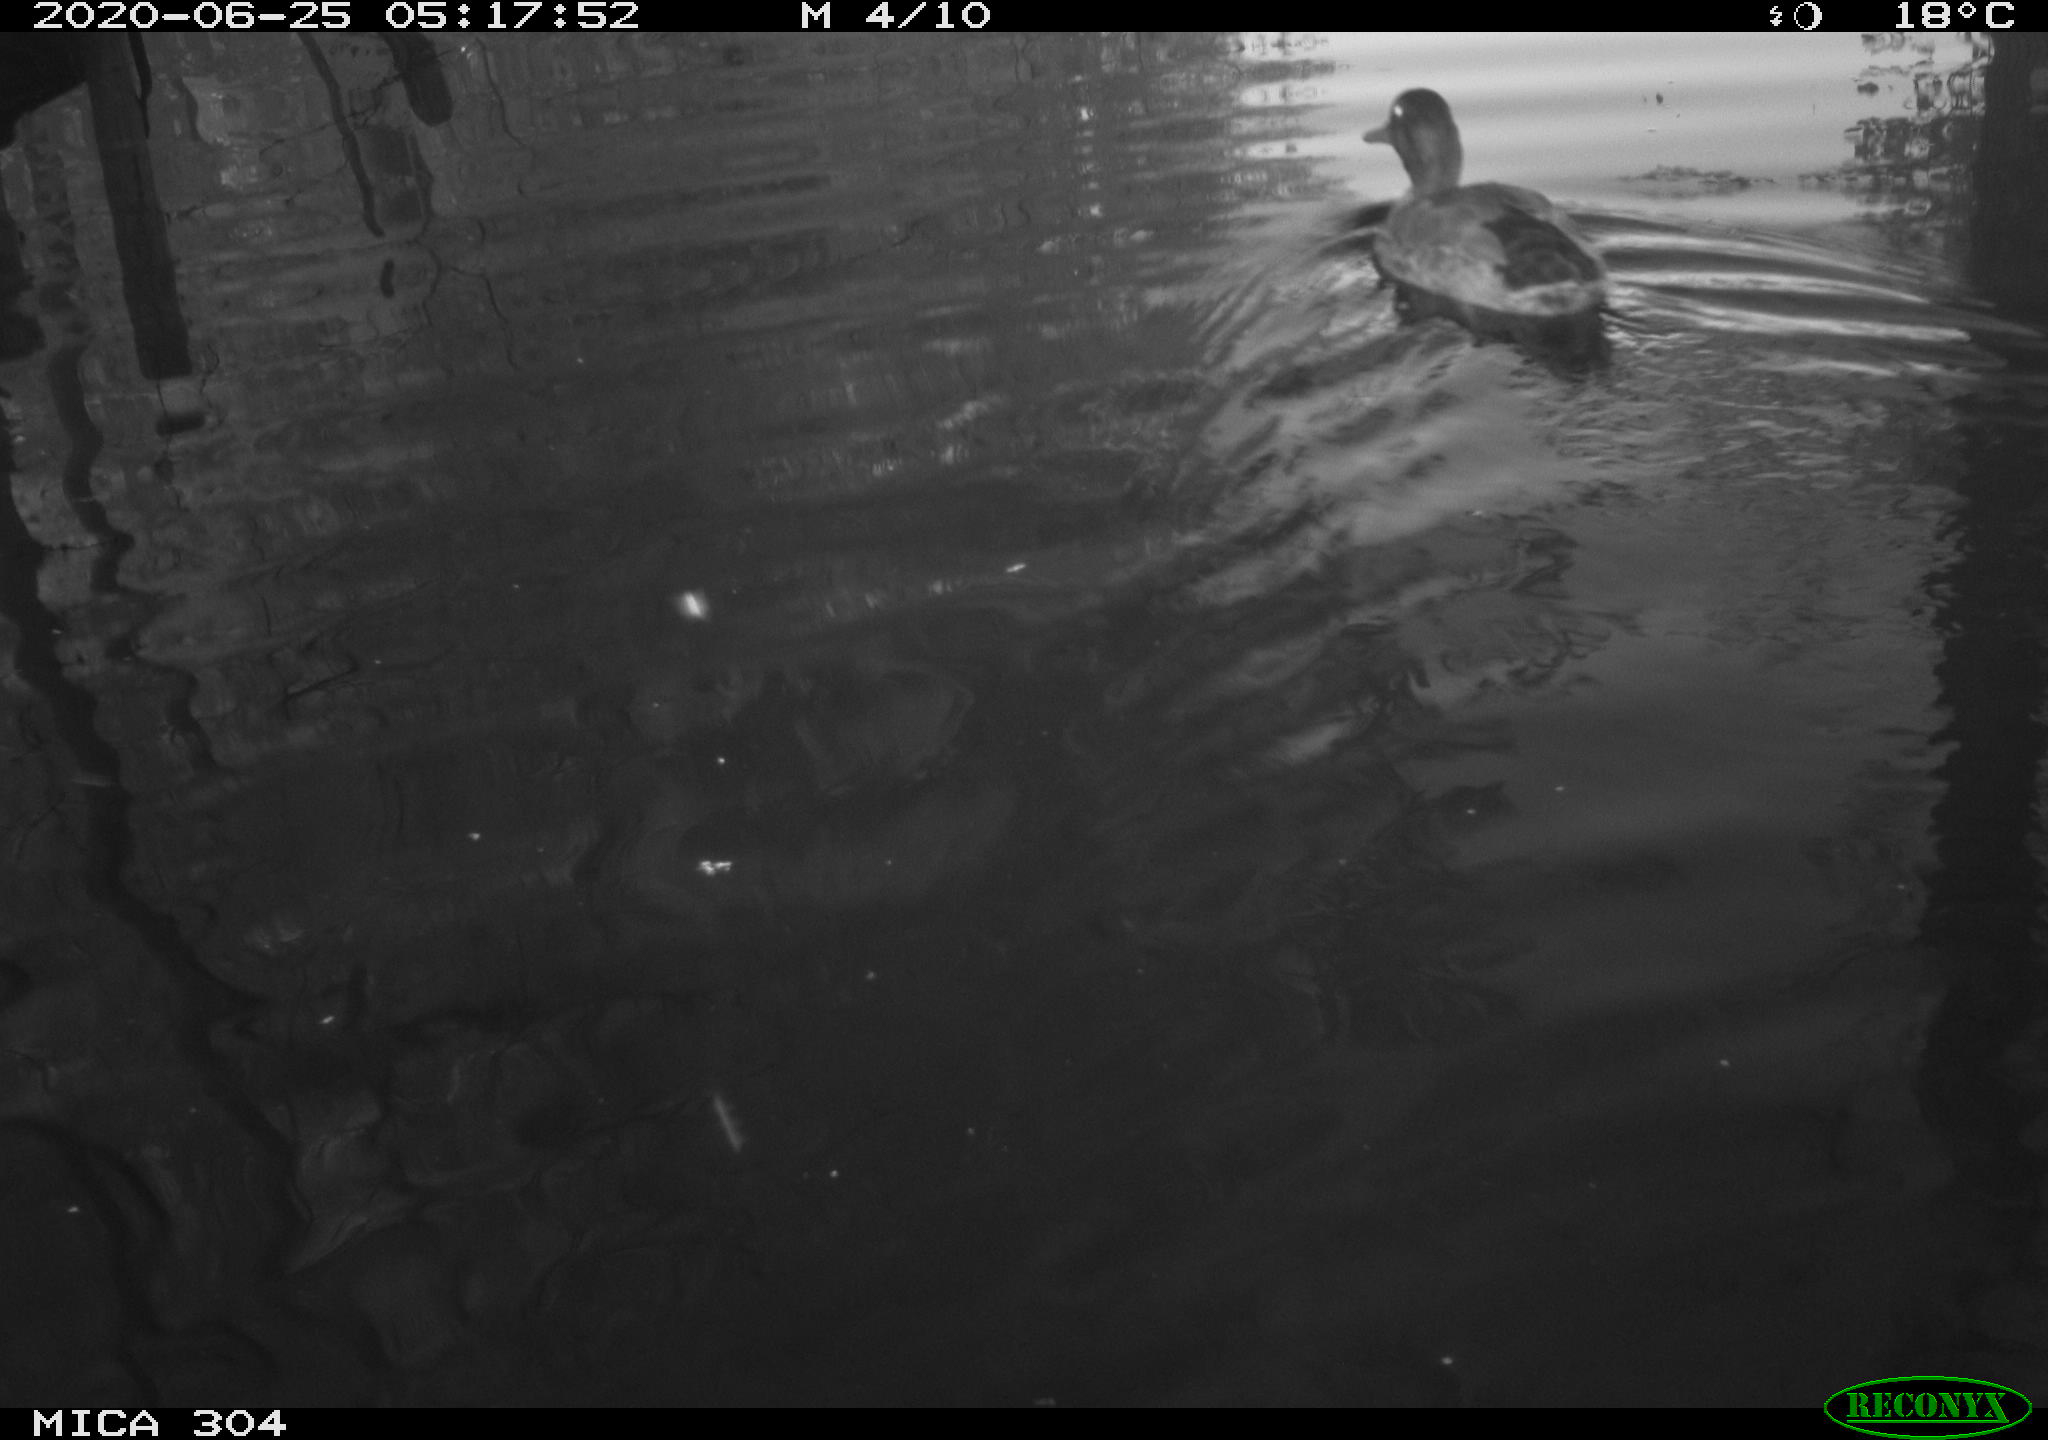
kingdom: Animalia
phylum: Chordata
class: Aves
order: Anseriformes
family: Anatidae
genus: Anas
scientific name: Anas platyrhynchos
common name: Mallard
